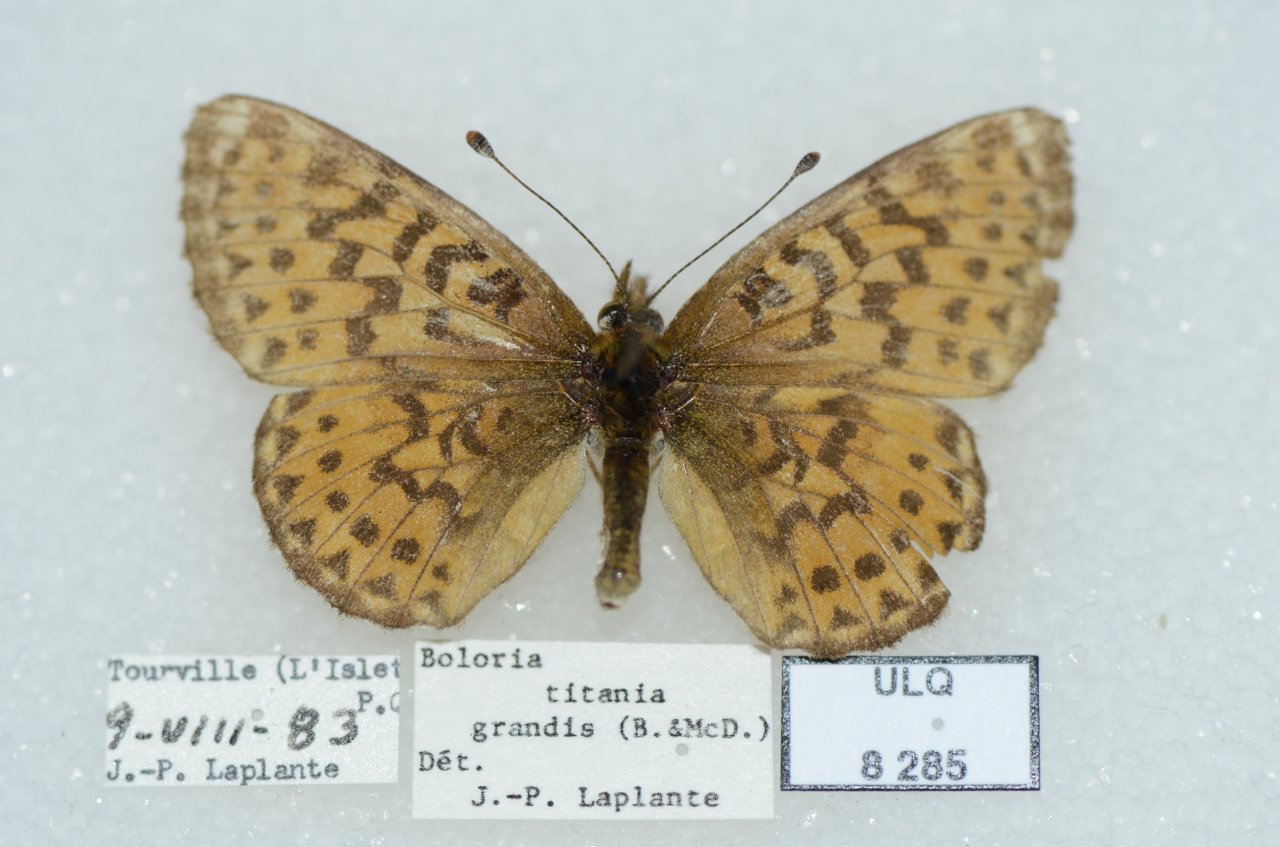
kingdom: Animalia
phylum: Arthropoda
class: Insecta
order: Lepidoptera
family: Nymphalidae
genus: Boloria
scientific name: Boloria chariclea
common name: Arctic Fritillary
